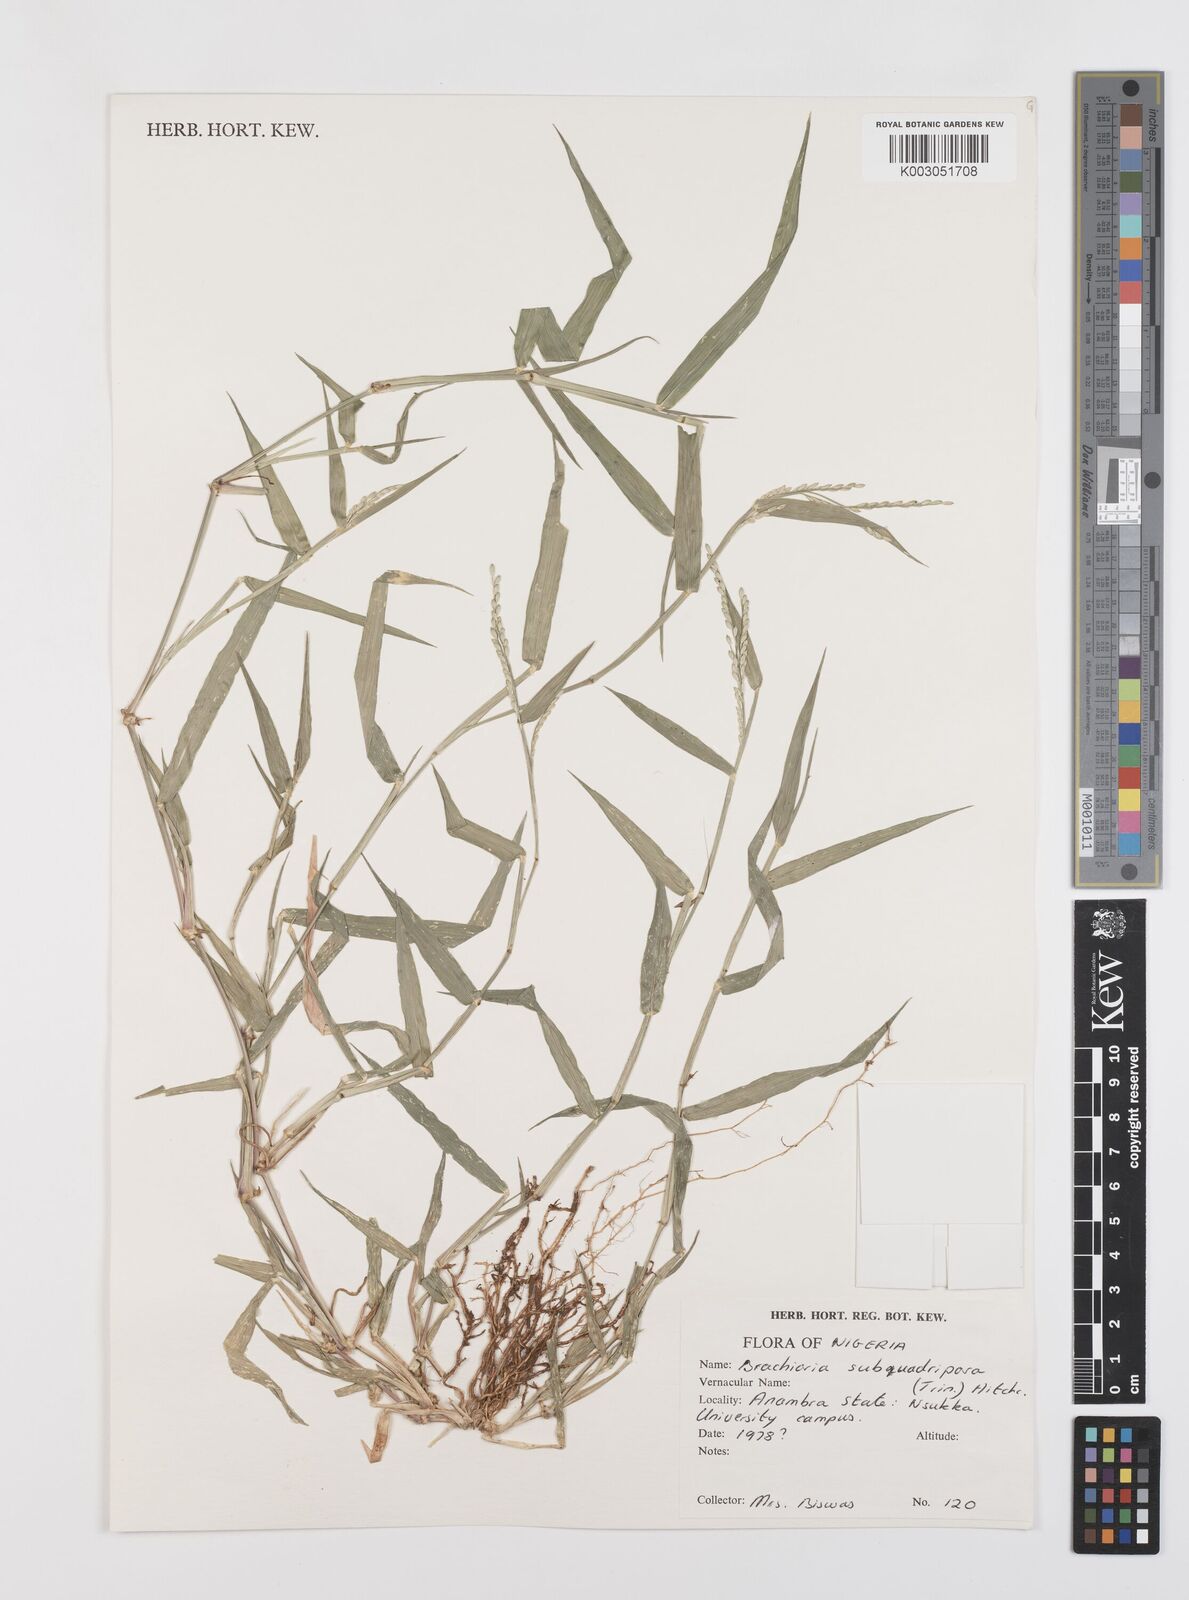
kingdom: Plantae
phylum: Tracheophyta
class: Liliopsida
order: Poales
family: Poaceae
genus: Urochloa
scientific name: Urochloa subquadripara
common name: Armgrass millet
